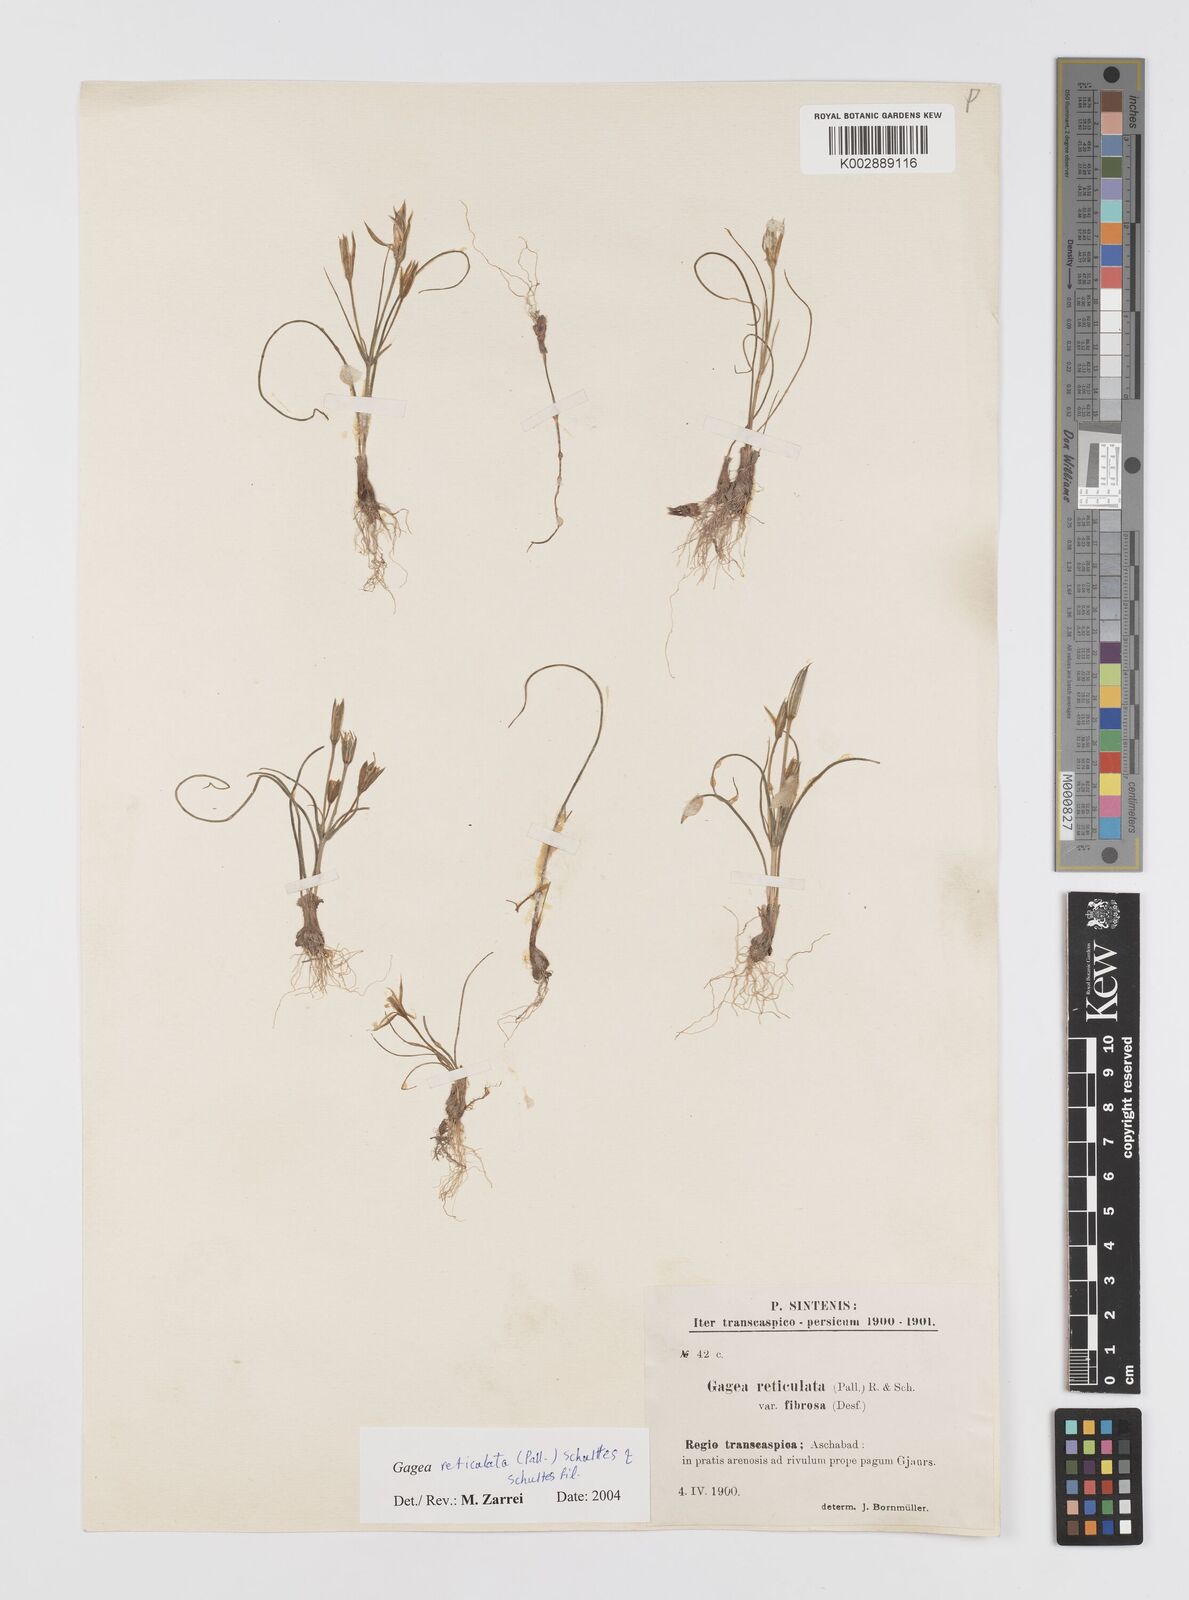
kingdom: Plantae
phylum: Tracheophyta
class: Liliopsida
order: Liliales
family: Liliaceae
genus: Gagea
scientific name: Gagea reticulata
